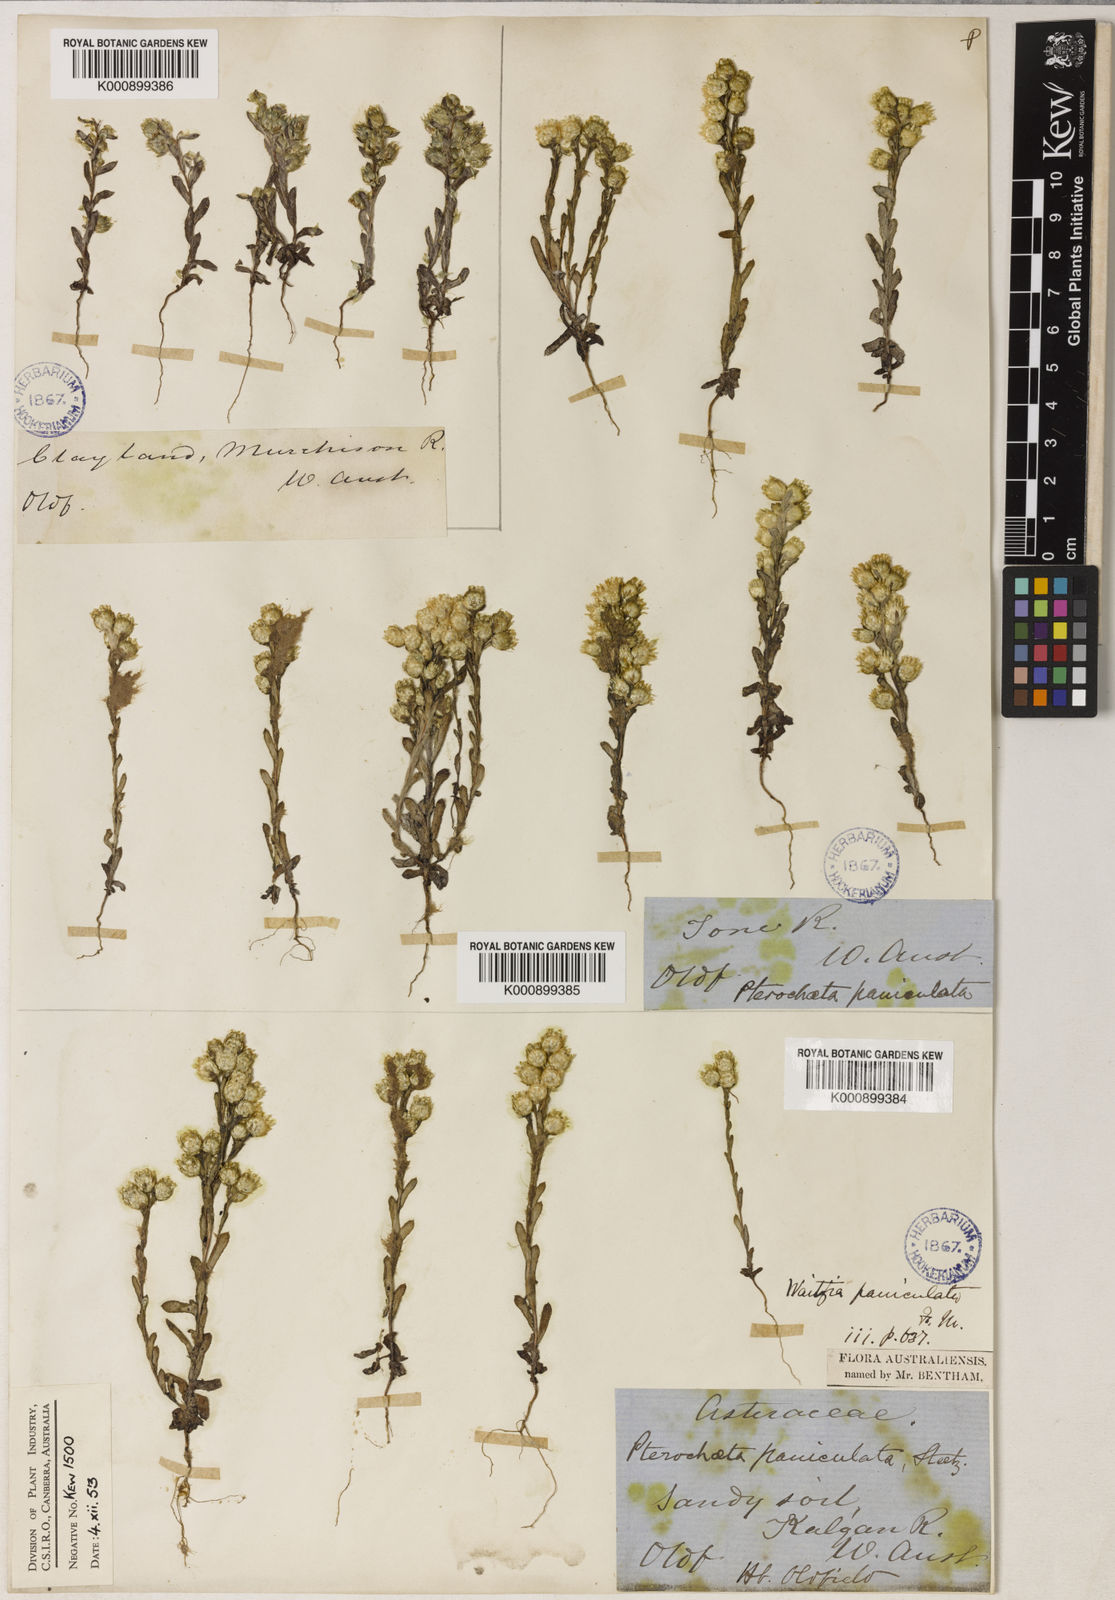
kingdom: Plantae
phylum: Tracheophyta
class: Magnoliopsida
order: Asterales
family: Asteraceae
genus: Pterochaeta
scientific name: Pterochaeta paniculata
